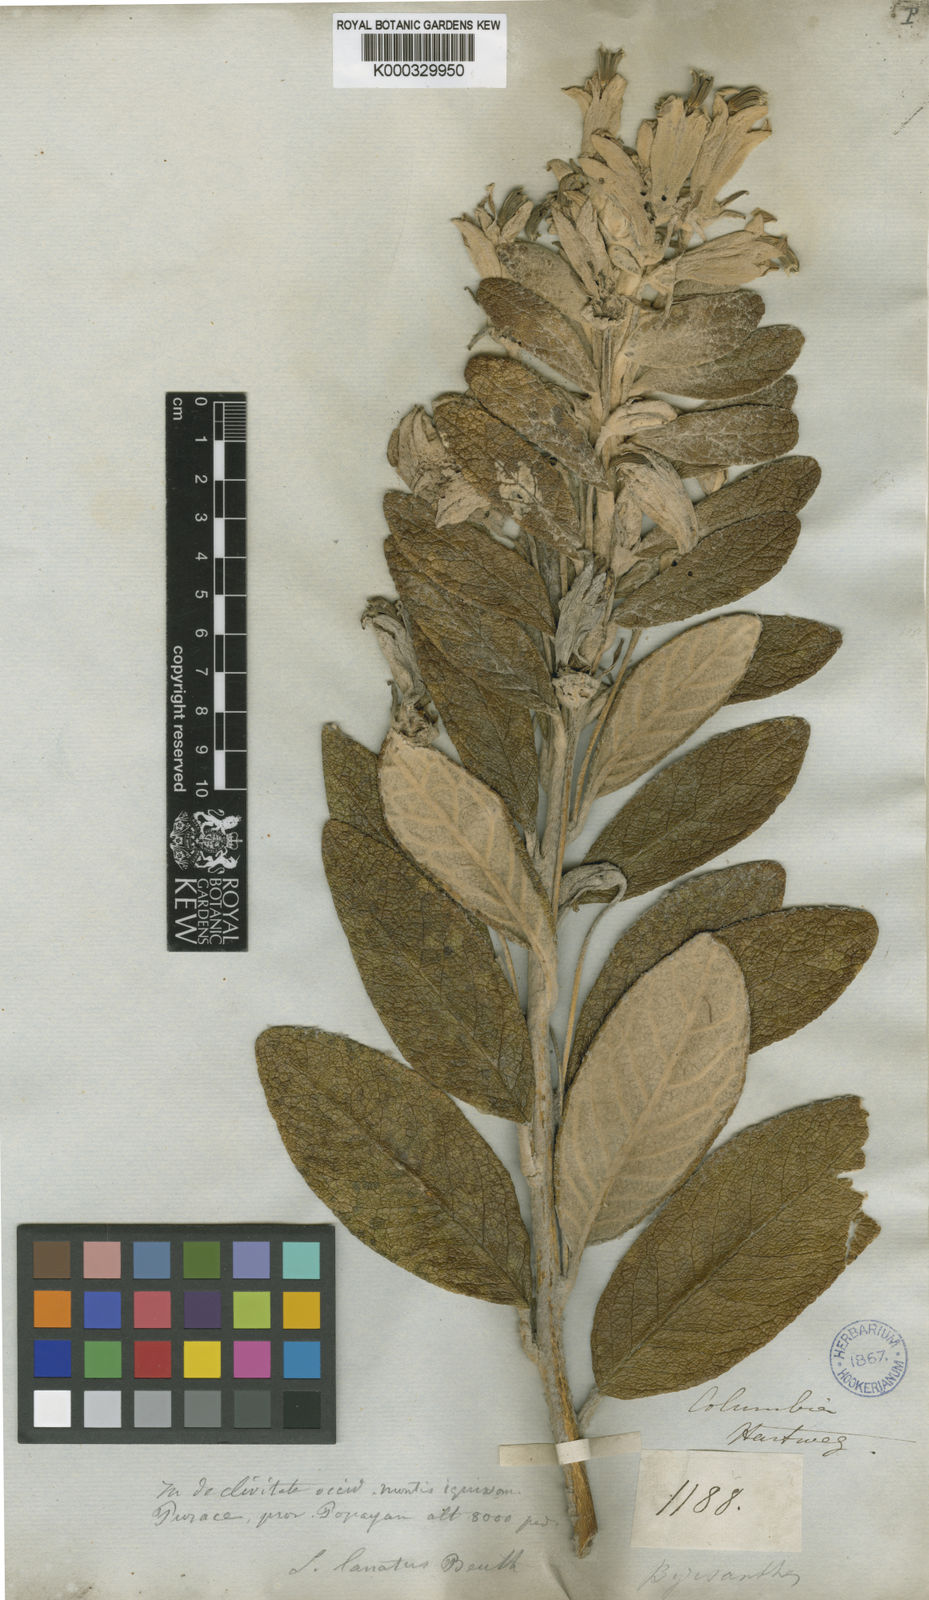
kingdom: Plantae
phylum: Tracheophyta
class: Magnoliopsida
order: Asterales
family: Campanulaceae
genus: Siphocampylus
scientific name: Siphocampylus niveus
